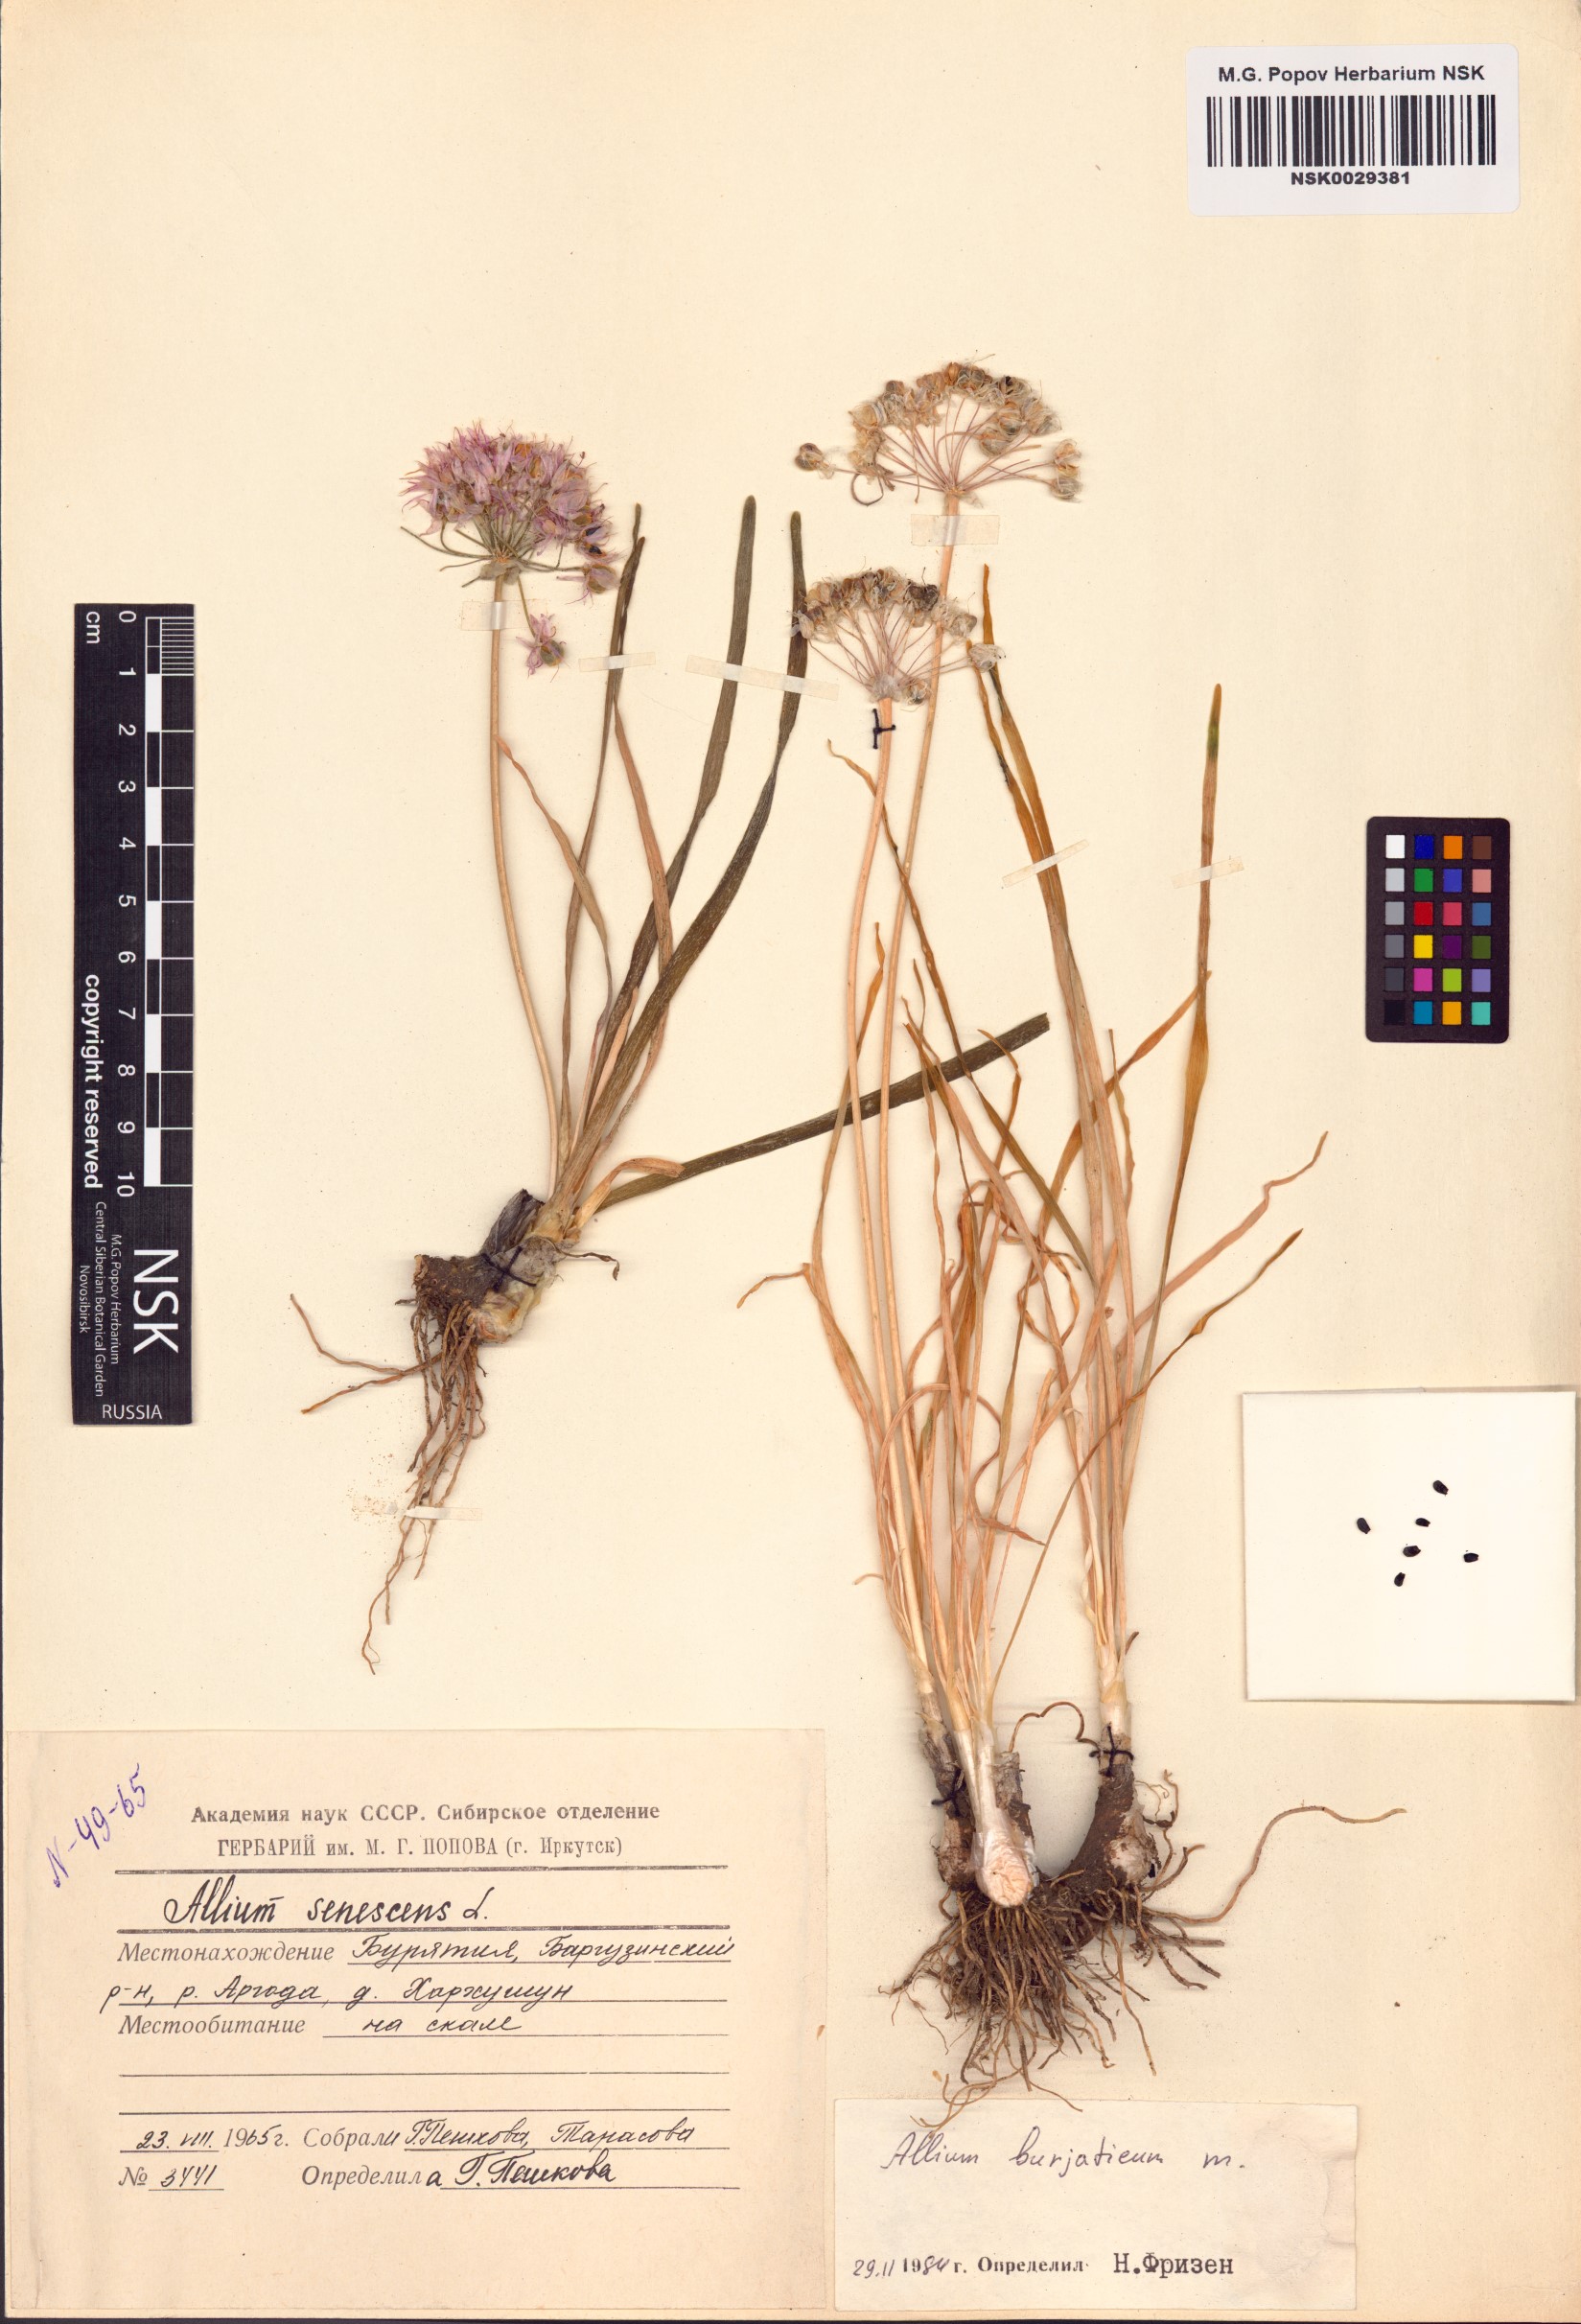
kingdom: Plantae
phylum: Tracheophyta
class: Liliopsida
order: Asparagales
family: Amaryllidaceae
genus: Allium
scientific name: Allium burjaticum
